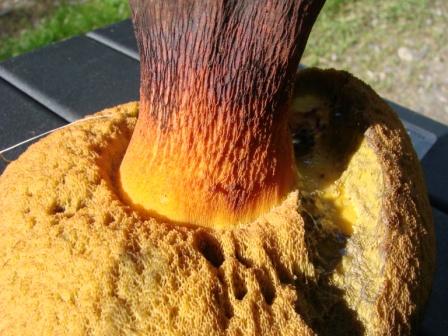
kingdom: Fungi
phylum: Basidiomycota
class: Agaricomycetes
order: Boletales
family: Boletaceae
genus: Suillellus
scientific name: Suillellus luridus
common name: netstokket indigorørhat
